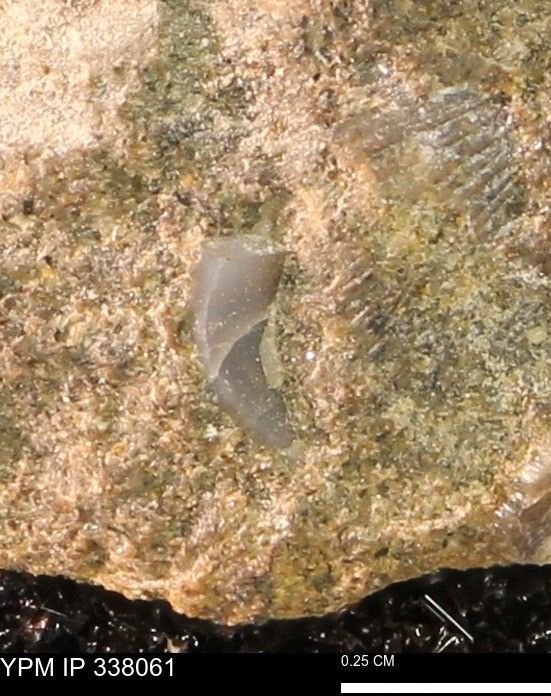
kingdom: Animalia
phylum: Mollusca
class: Bivalvia
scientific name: Bivalvia
